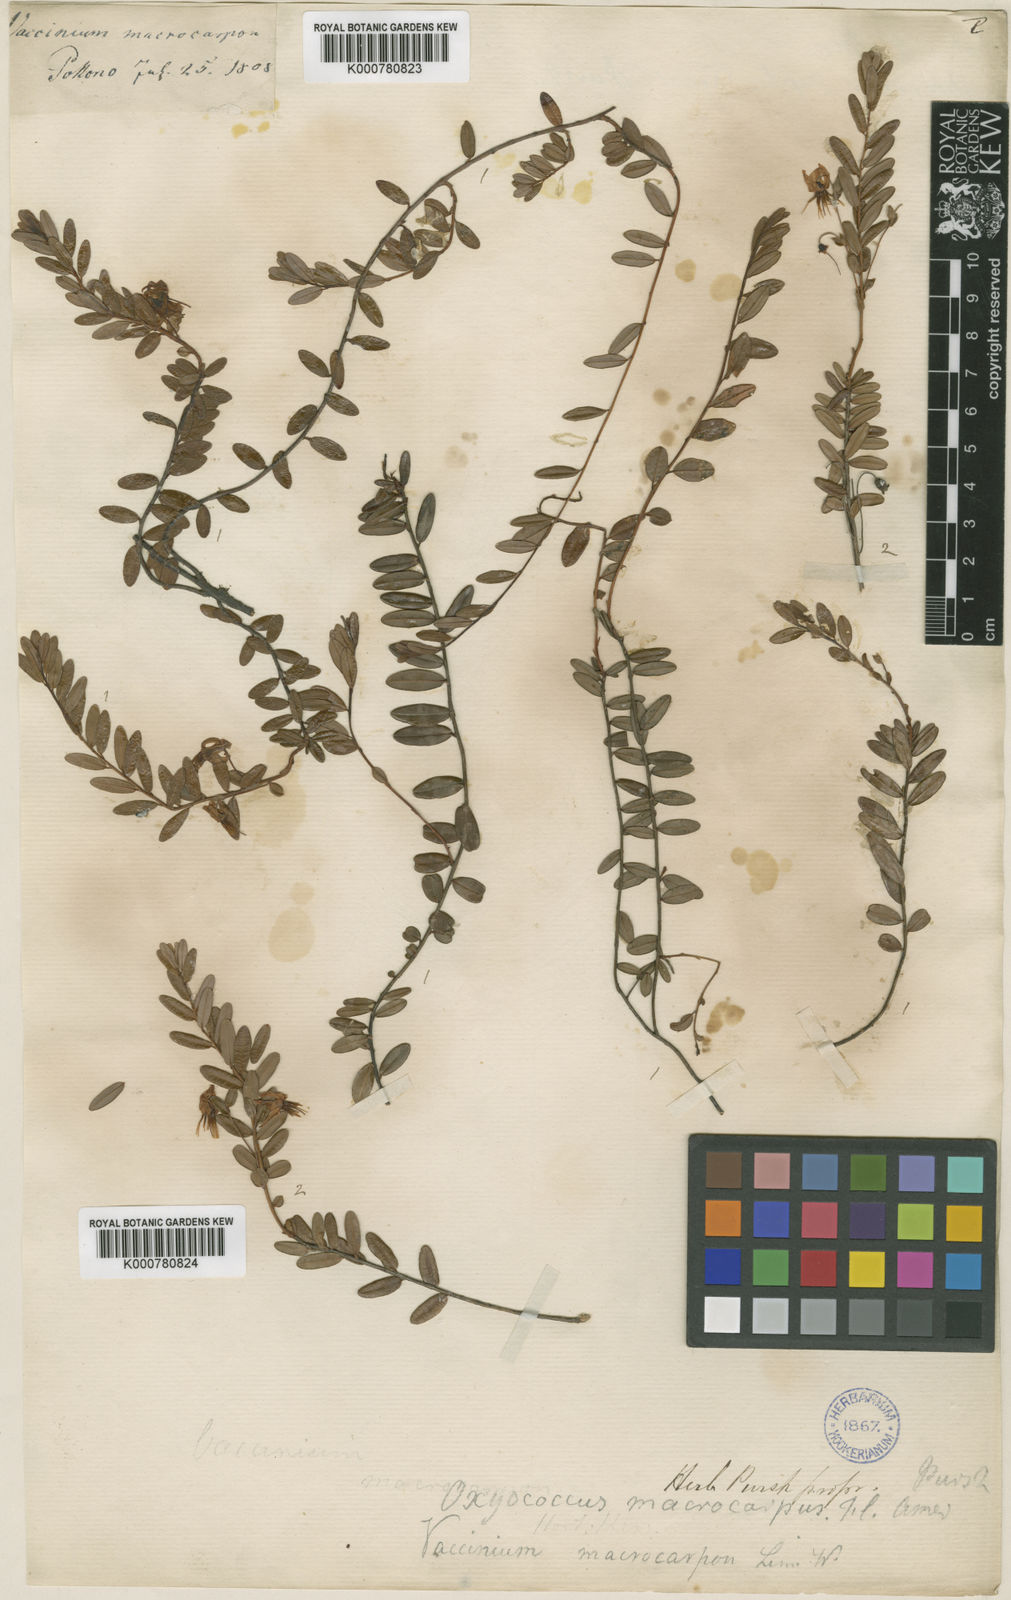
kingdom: Plantae
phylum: Tracheophyta
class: Magnoliopsida
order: Ericales
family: Ericaceae
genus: Oxycoccus
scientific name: Oxycoccus
